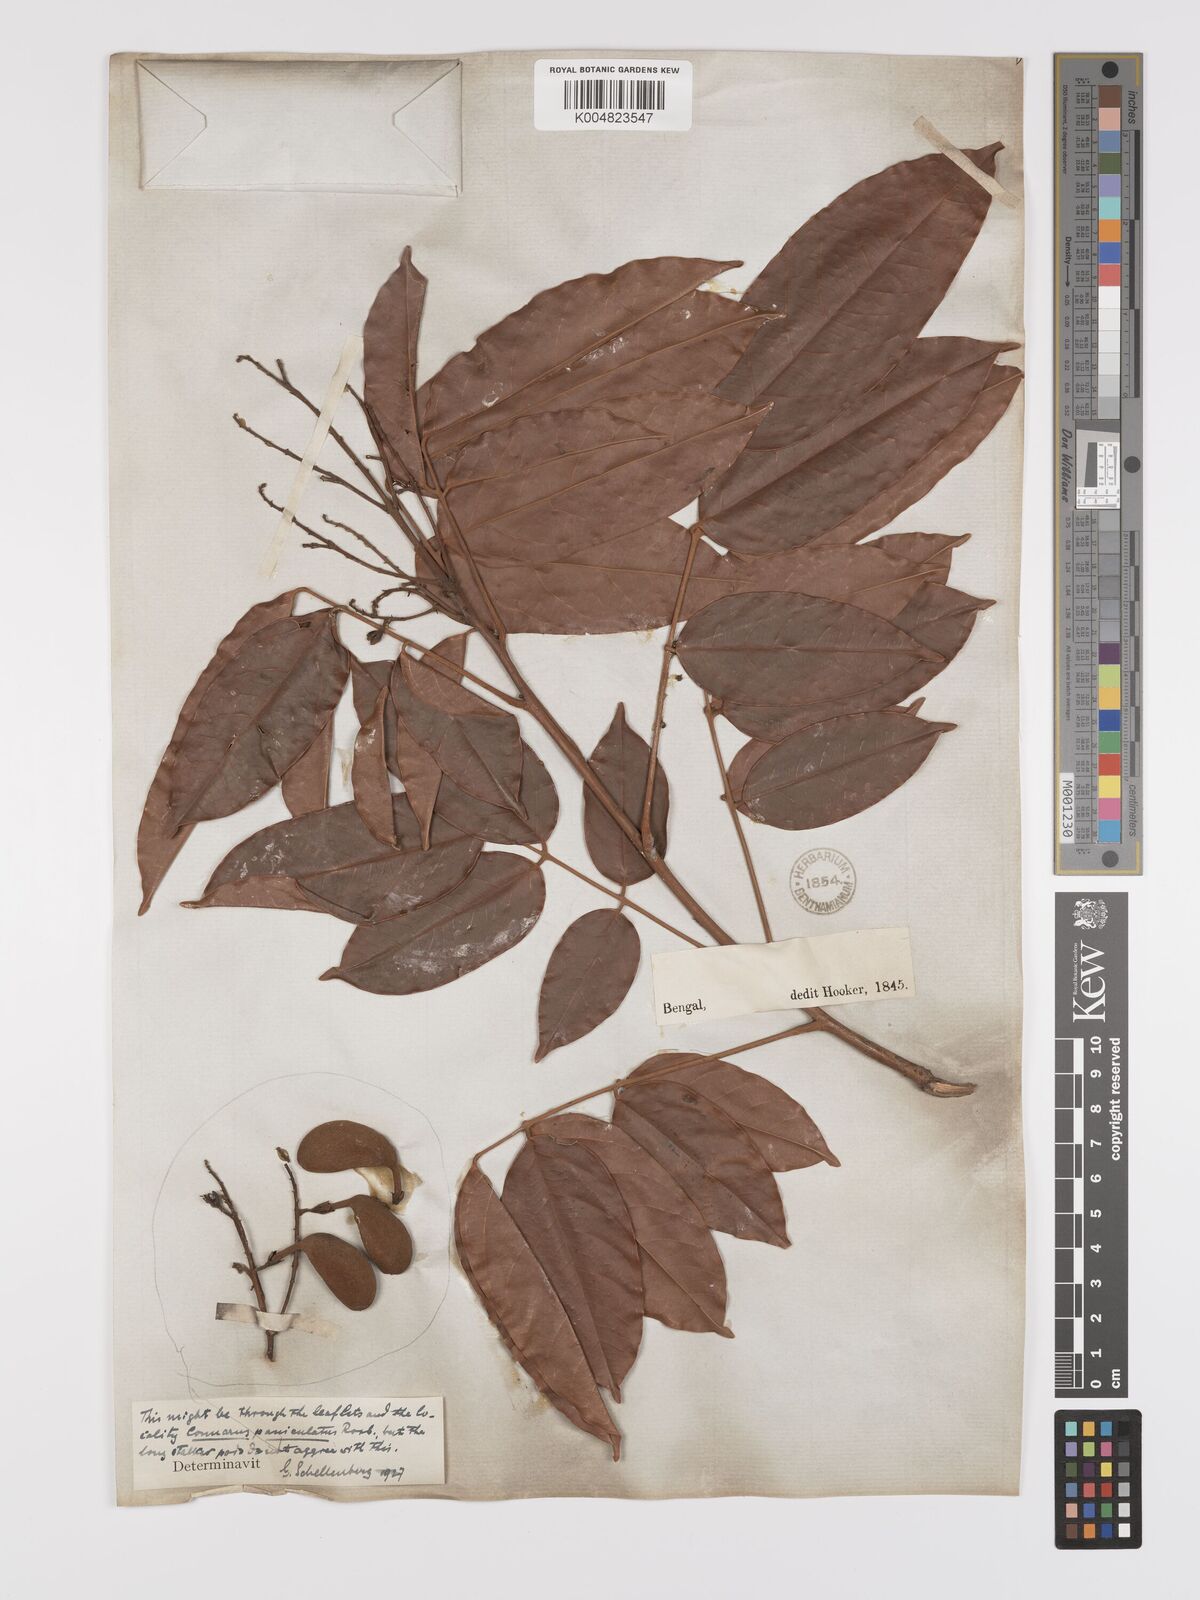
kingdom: Plantae
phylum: Tracheophyta
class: Magnoliopsida
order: Oxalidales
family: Connaraceae
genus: Connarus
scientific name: Connarus paniculatus
